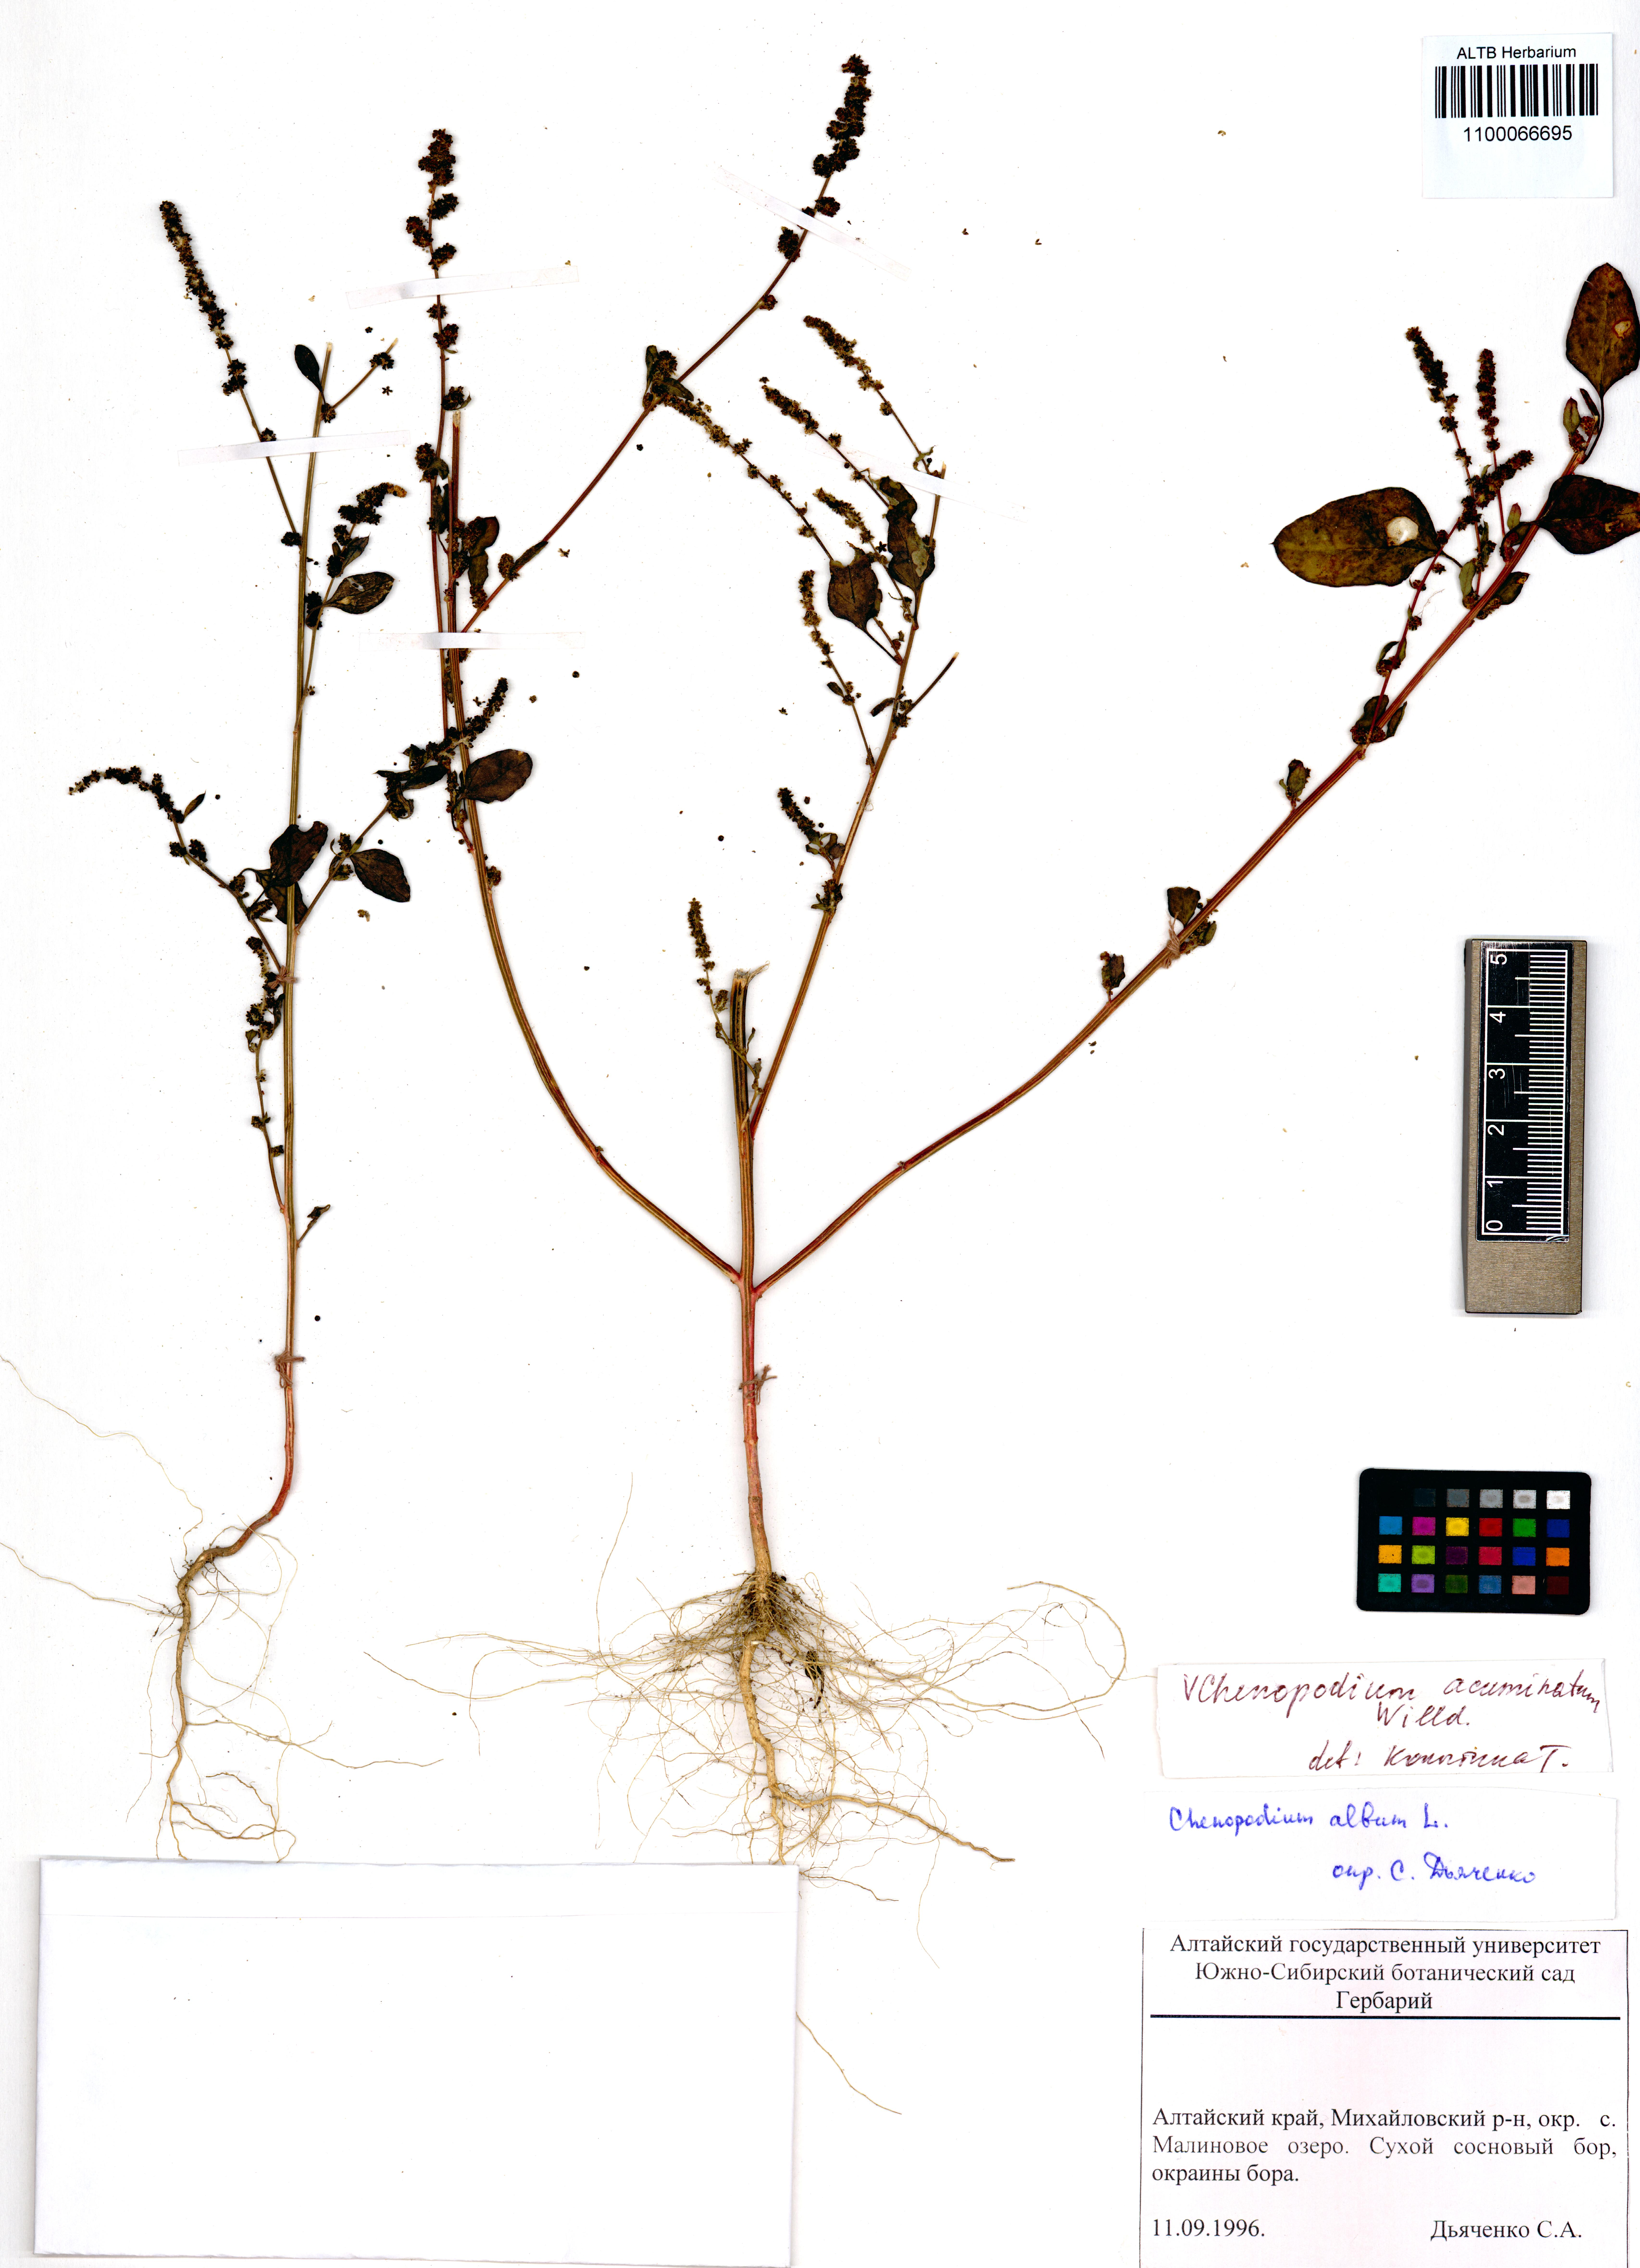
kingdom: Plantae
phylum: Tracheophyta
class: Magnoliopsida
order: Caryophyllales
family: Amaranthaceae
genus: Chenopodium
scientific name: Chenopodium acuminatum
